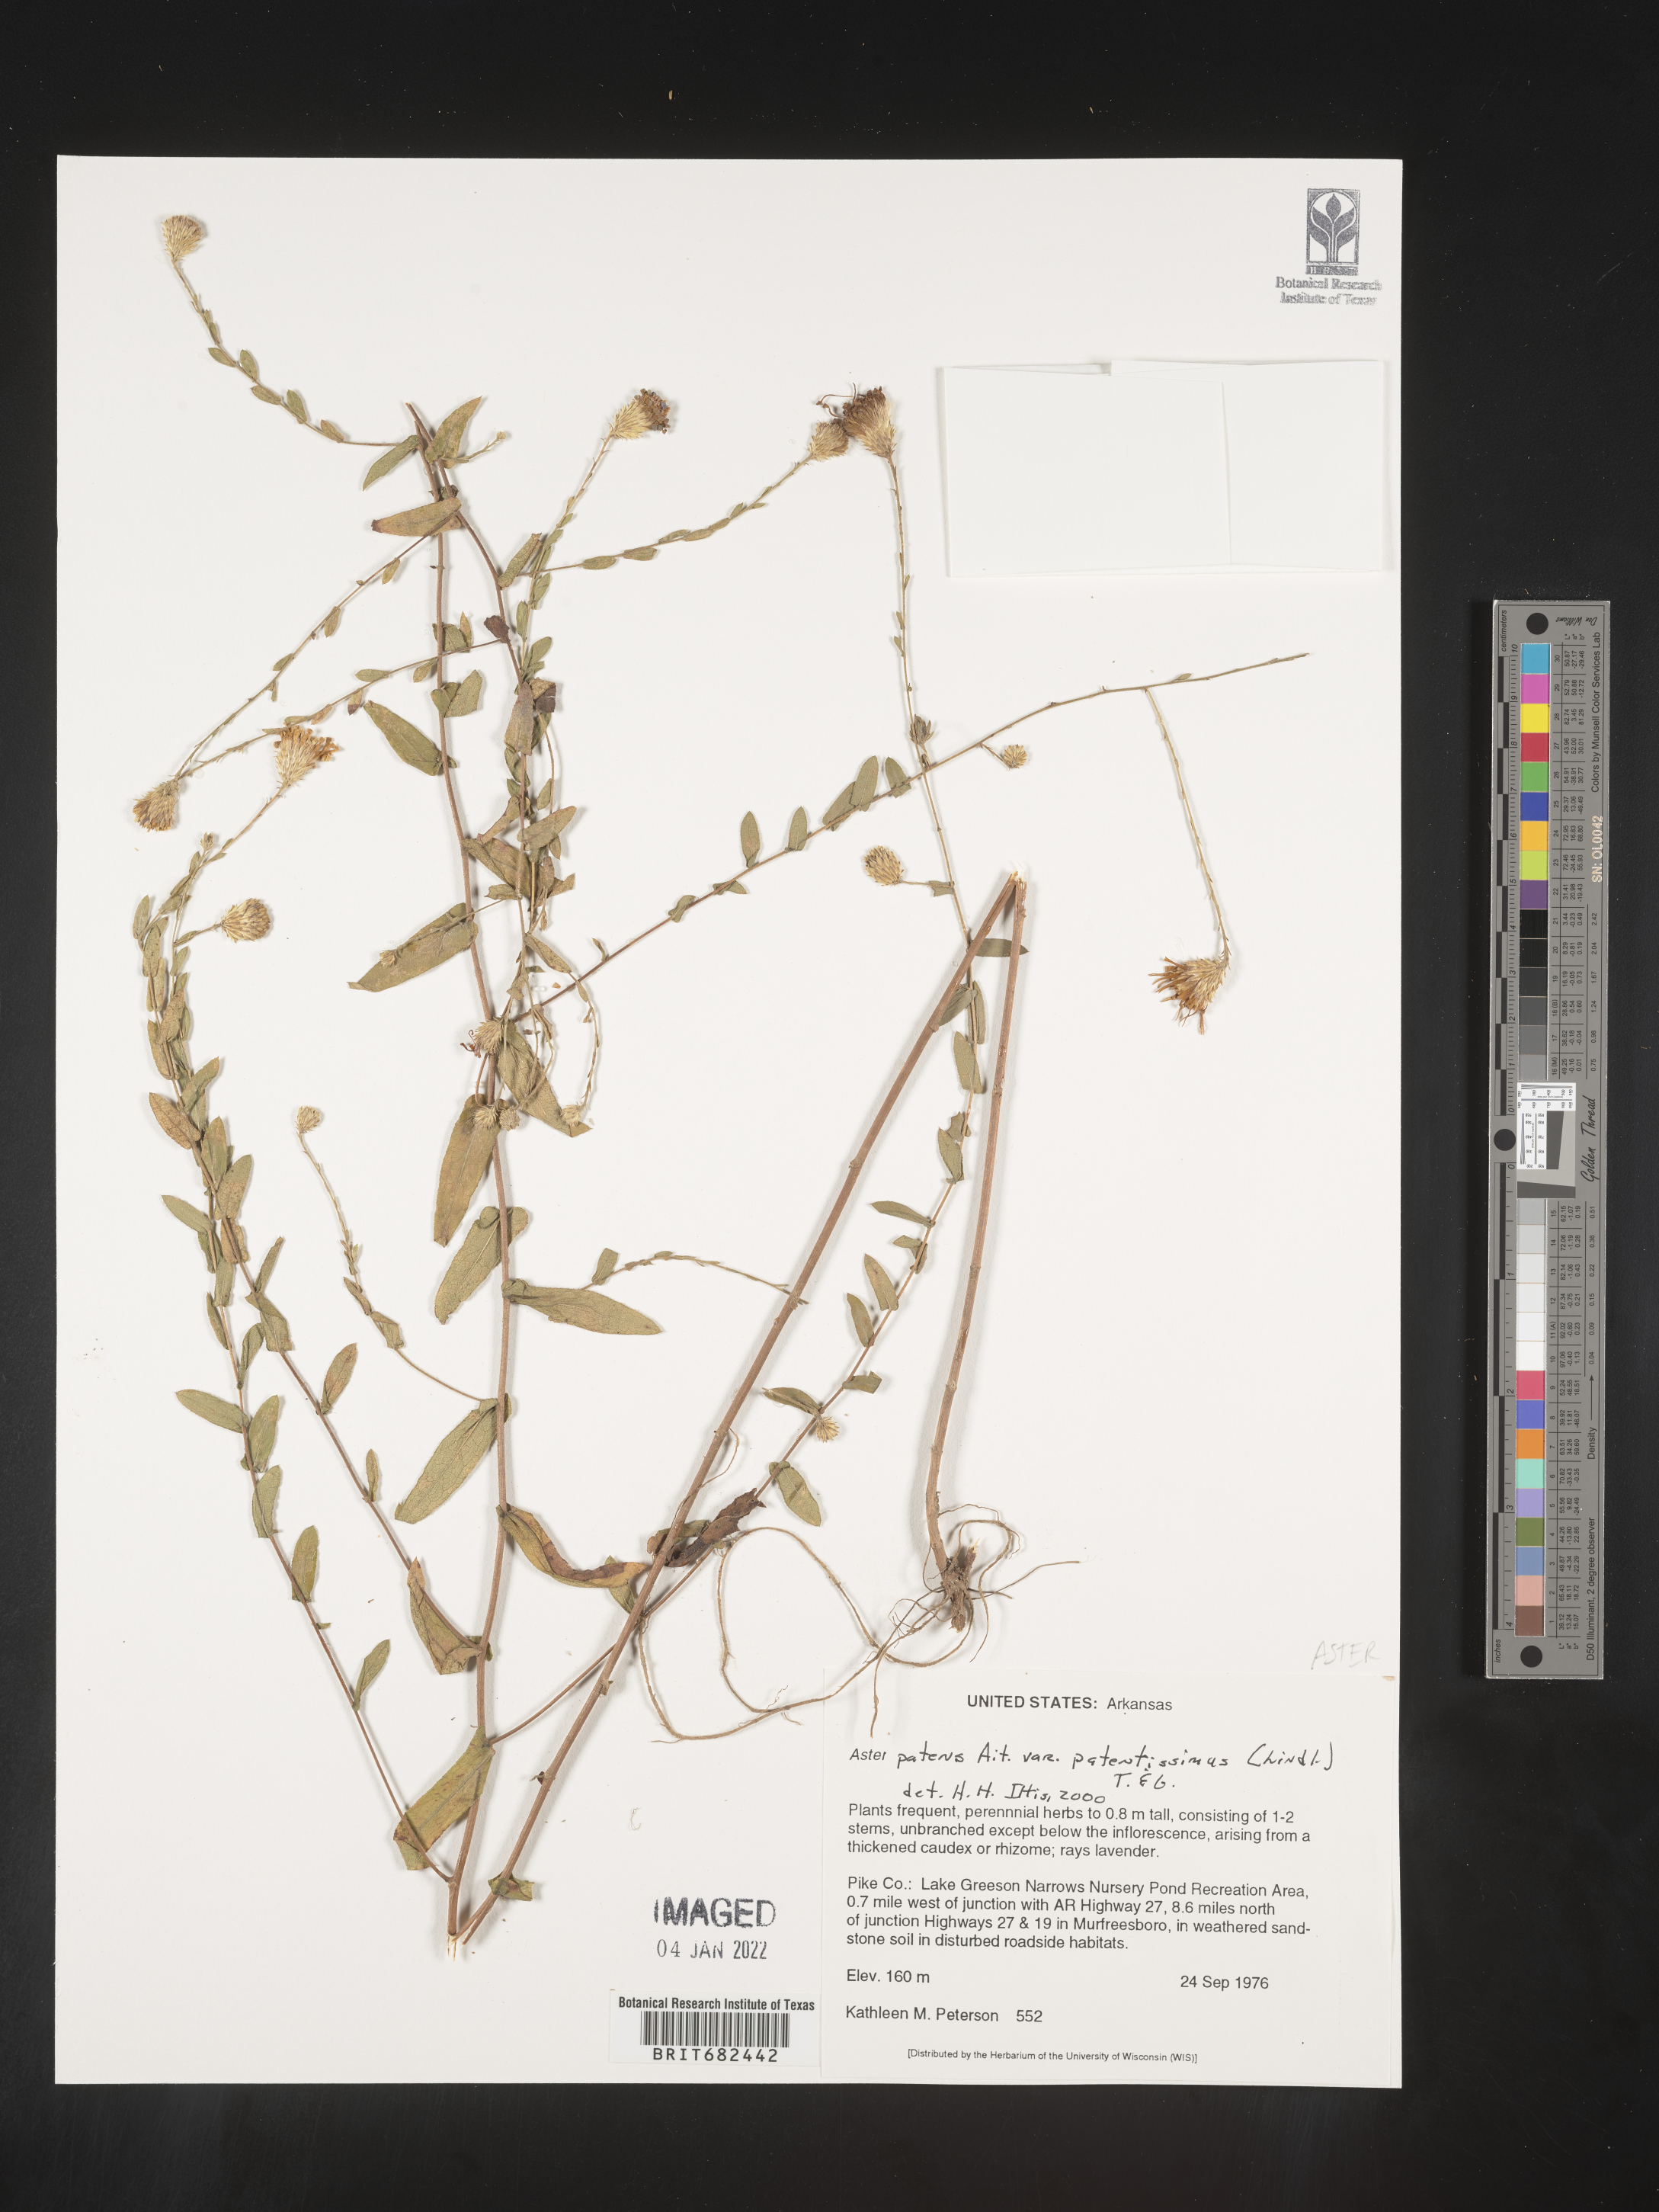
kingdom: Plantae
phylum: Tracheophyta
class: Magnoliopsida
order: Asterales
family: Asteraceae
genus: Aster
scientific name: Aster
